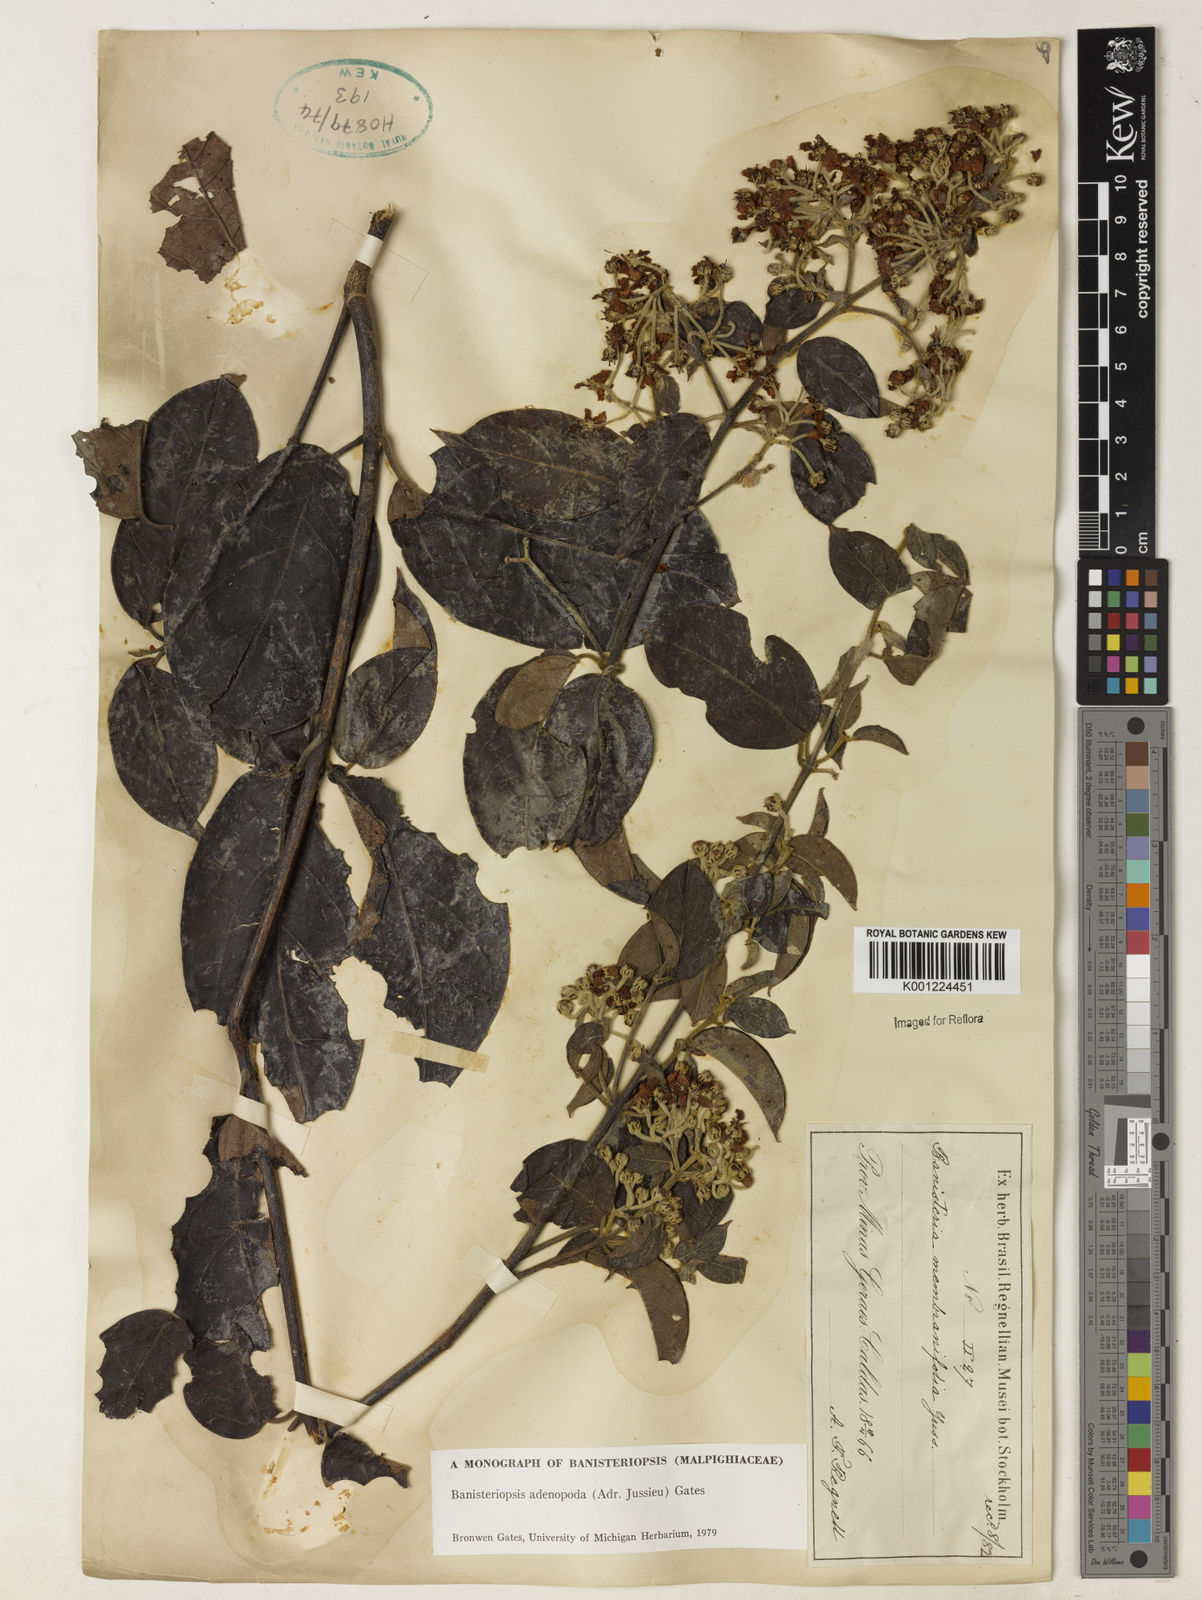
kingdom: Plantae
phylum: Tracheophyta
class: Magnoliopsida
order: Malpighiales
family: Malpighiaceae
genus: Banisteriopsis
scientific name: Banisteriopsis adenopoda
